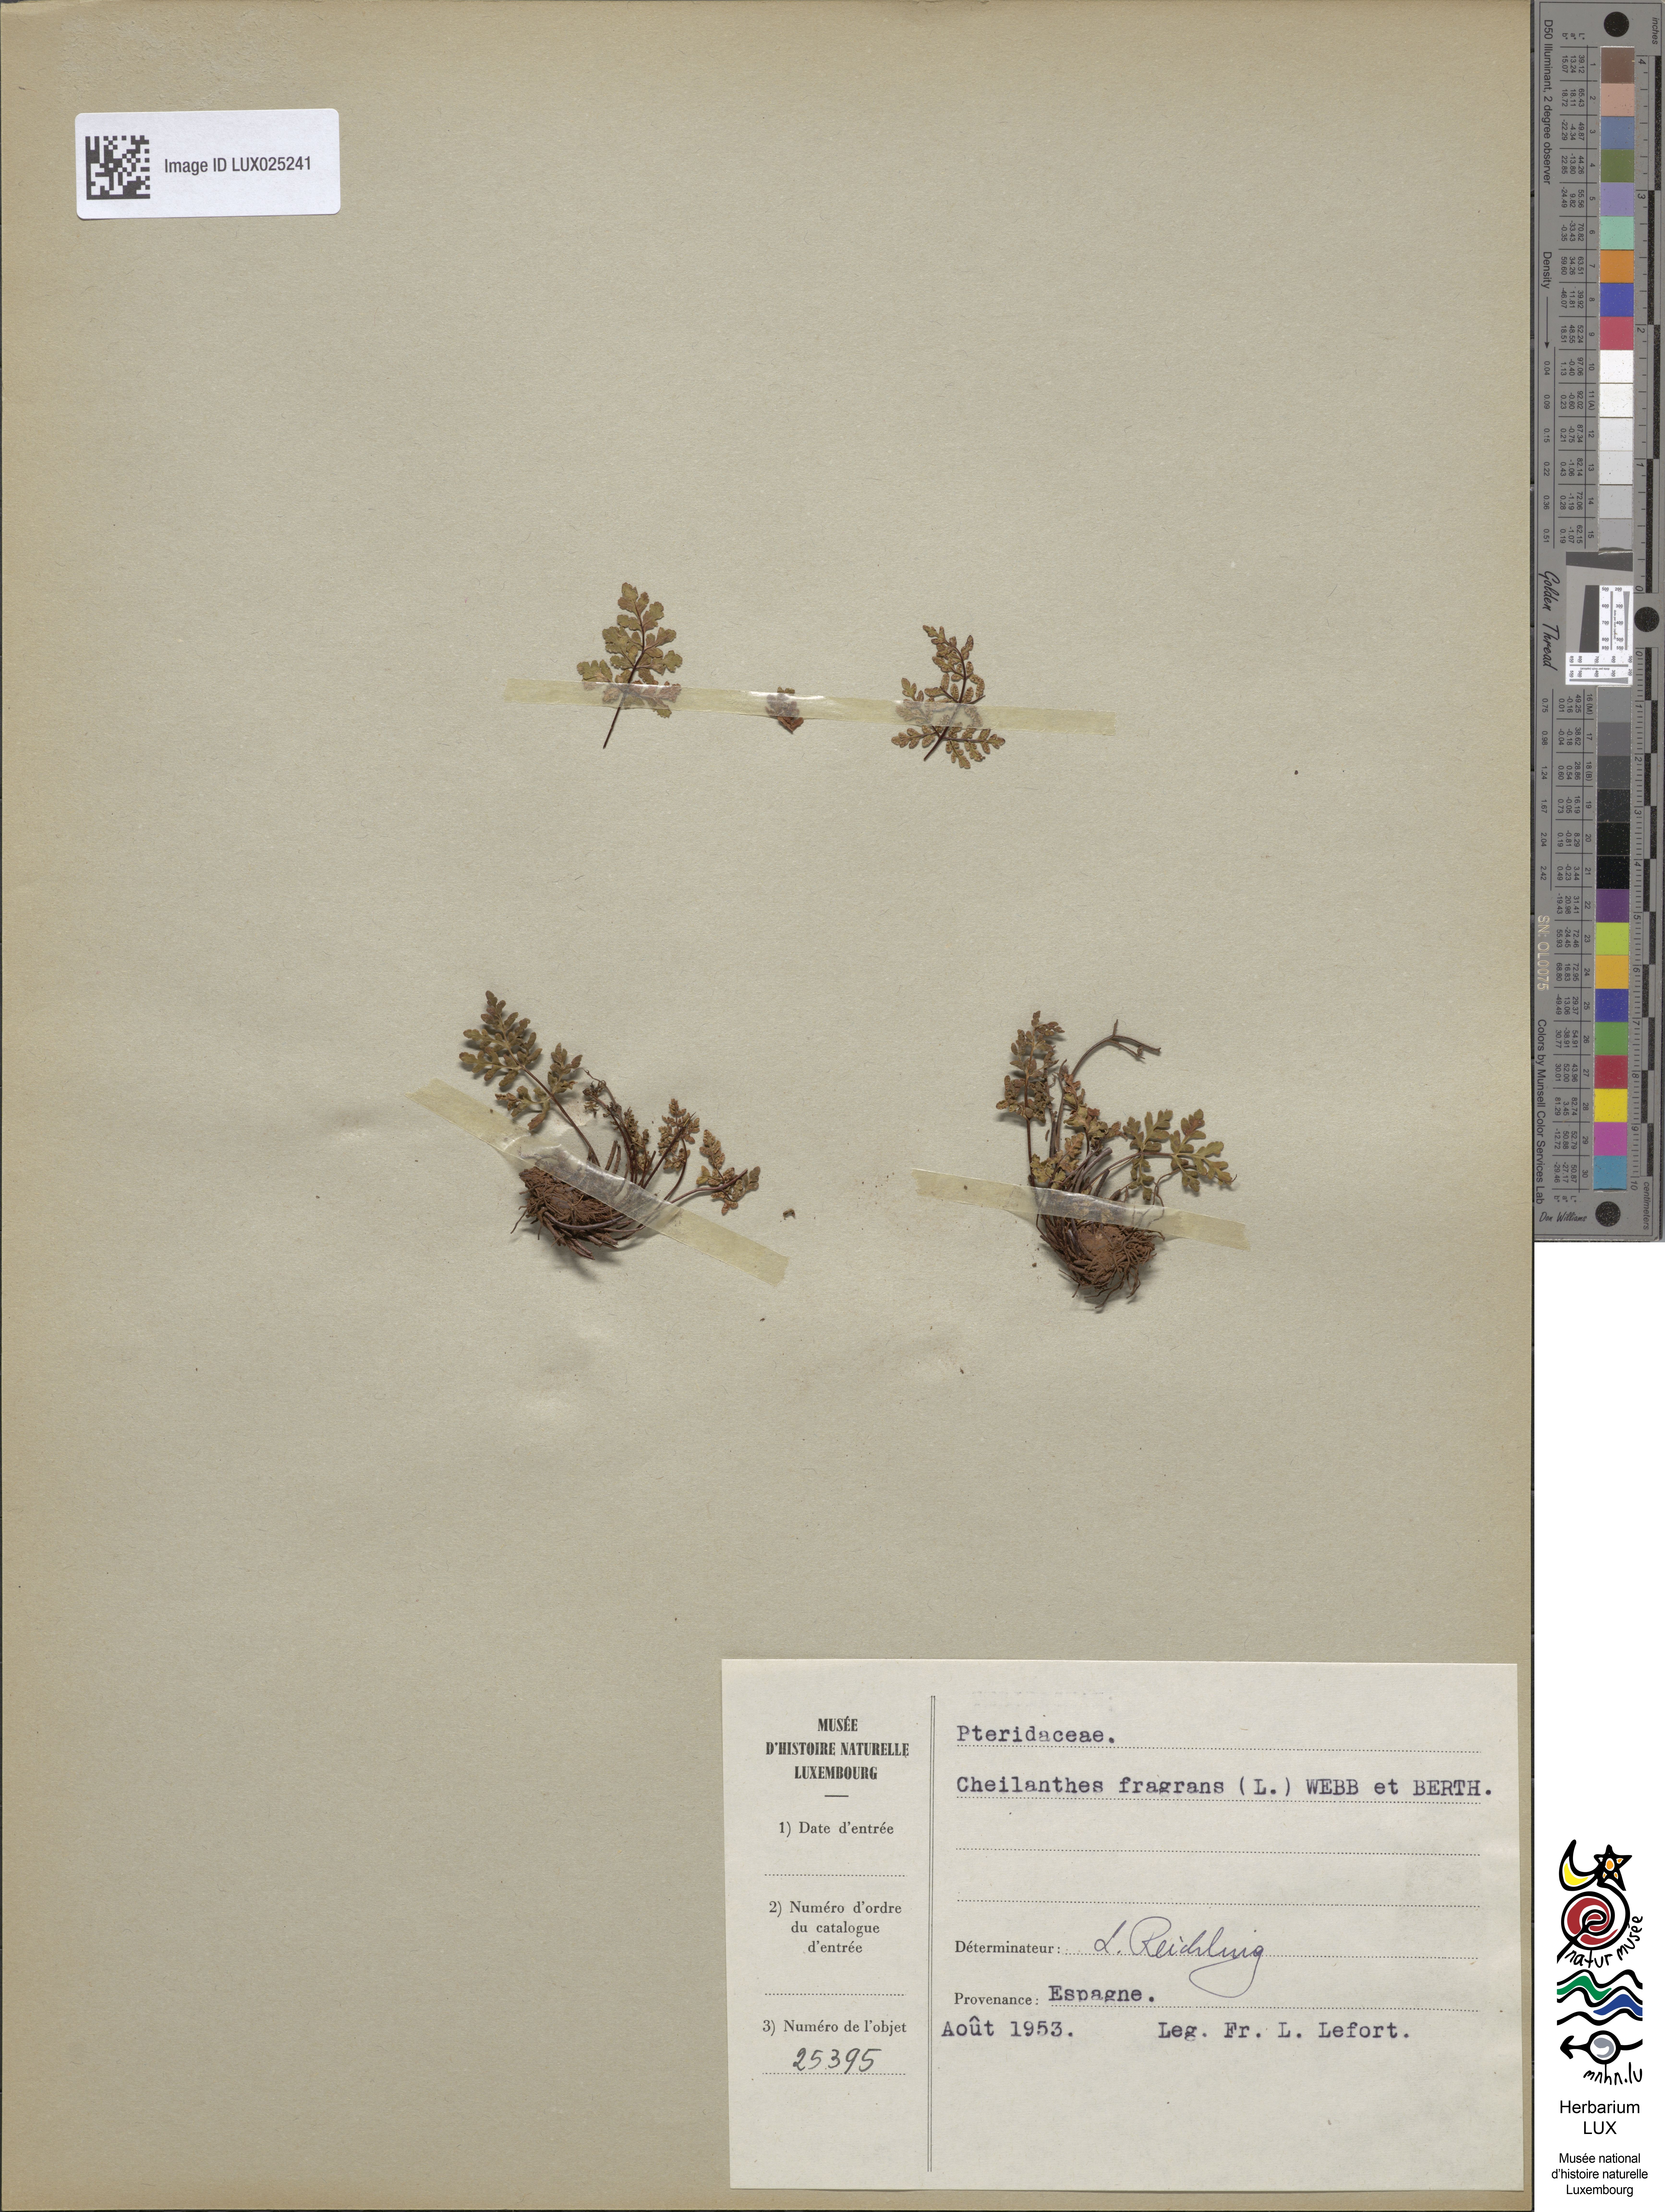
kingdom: Plantae
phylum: Tracheophyta
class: Polypodiopsida
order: Polypodiales
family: Pteridaceae
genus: Oeosporangium
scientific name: Oeosporangium pteridioides
